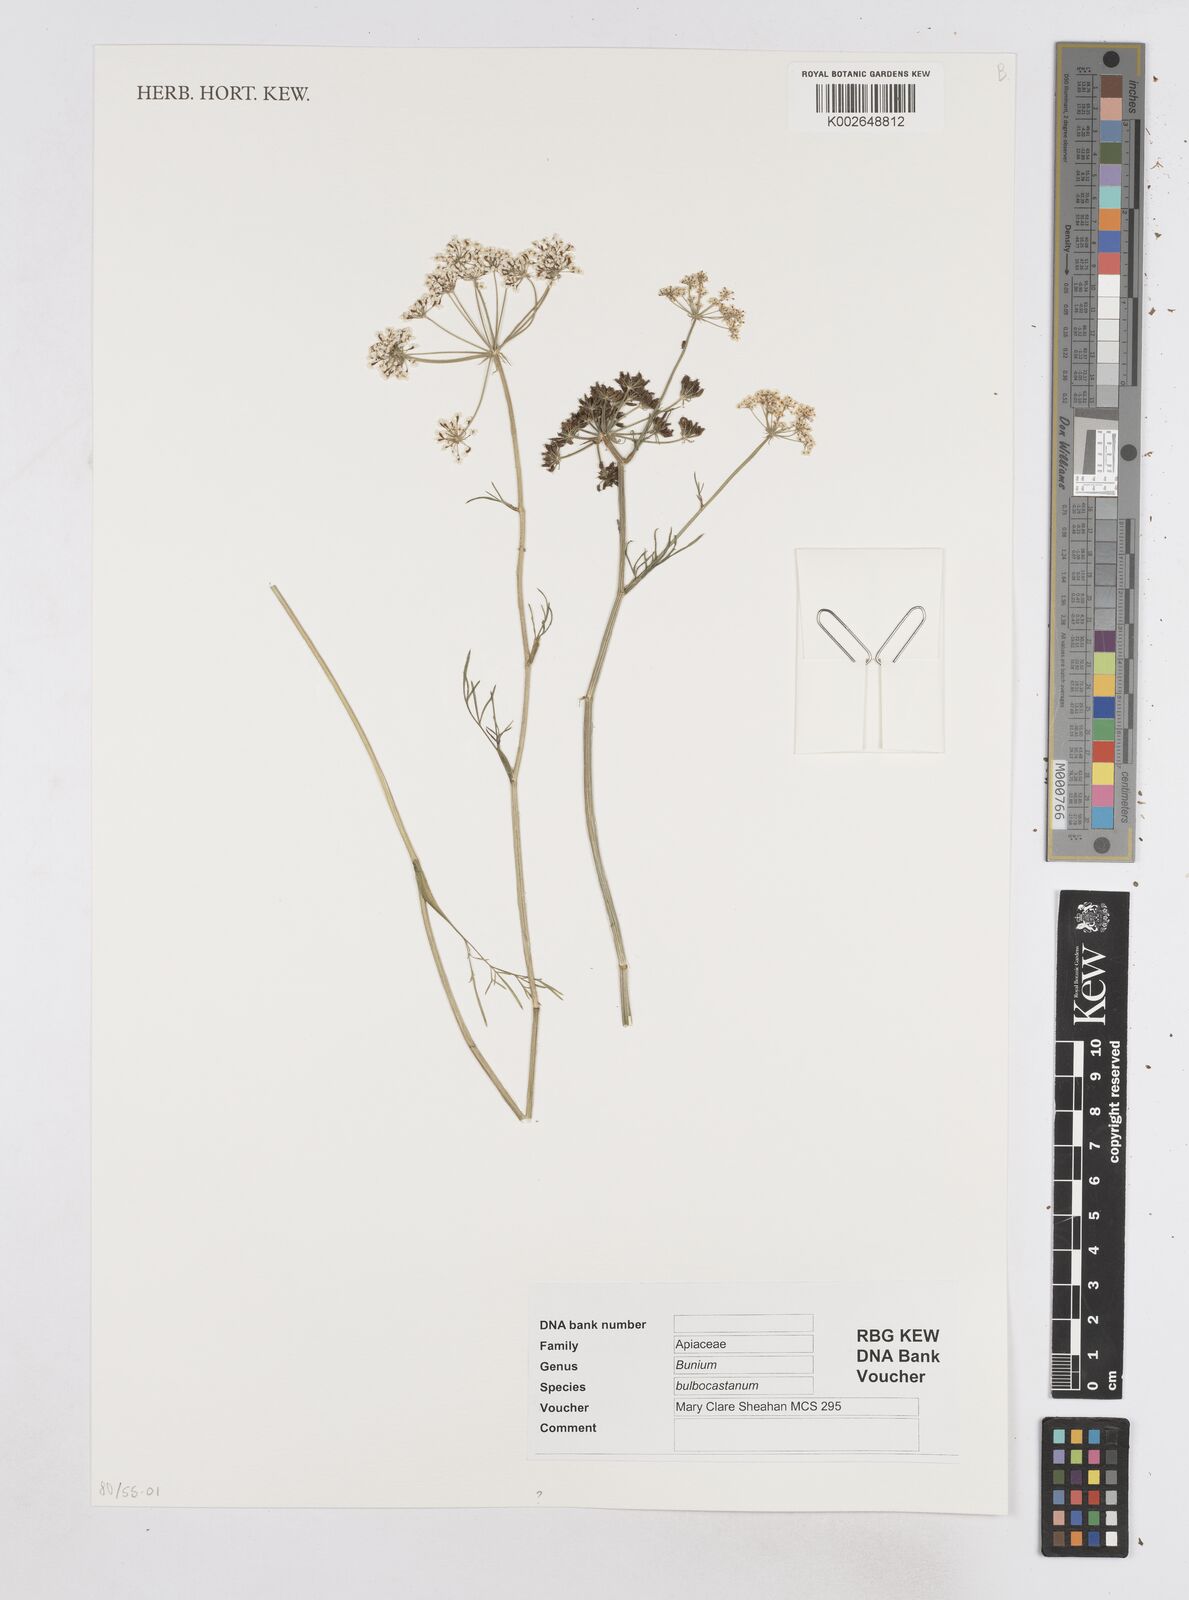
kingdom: Plantae
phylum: Tracheophyta
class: Magnoliopsida
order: Apiales
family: Apiaceae
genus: Bunium
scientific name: Bunium bulbocastanum
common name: Great pignut
